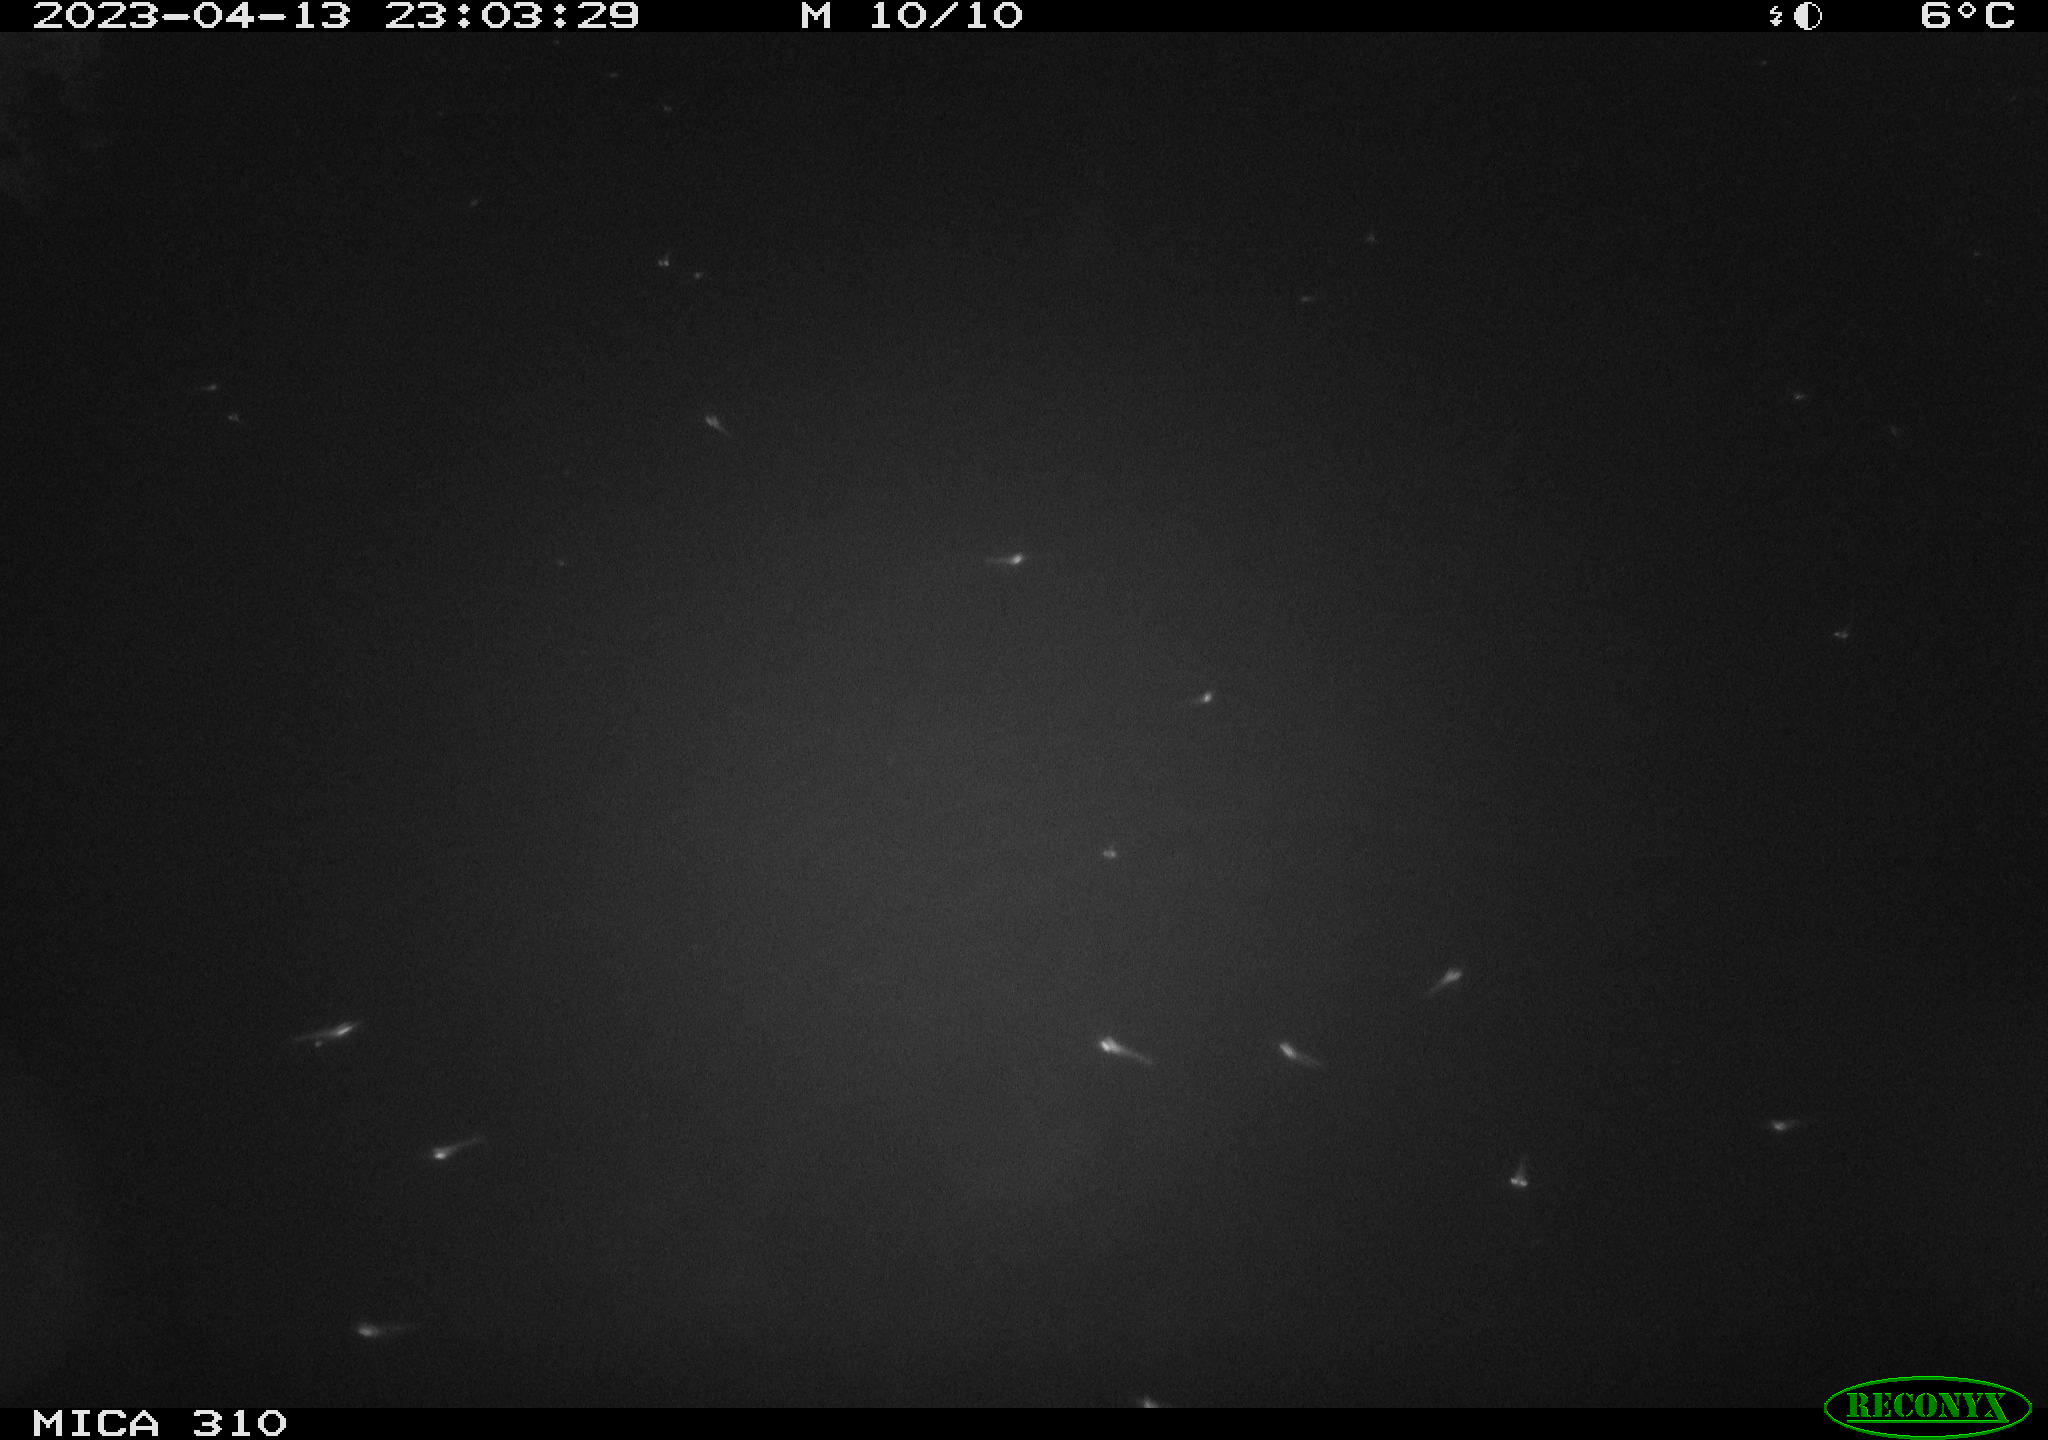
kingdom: Animalia
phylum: Chordata
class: Aves
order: Anseriformes
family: Anatidae
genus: Anas
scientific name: Anas
